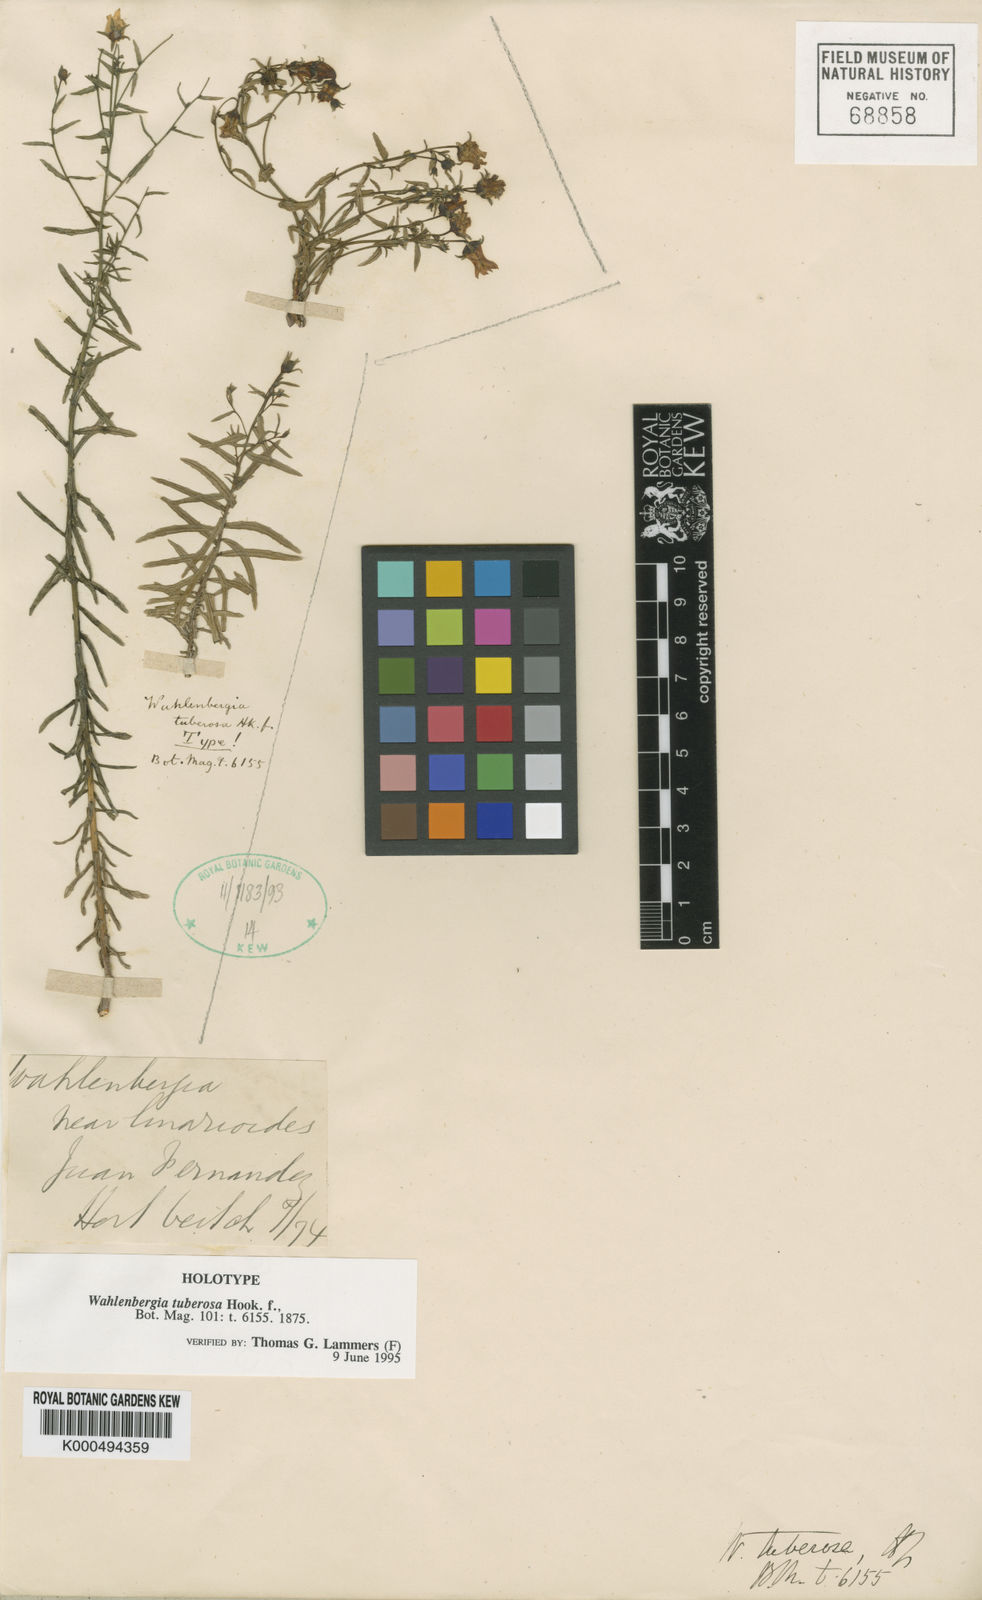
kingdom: Plantae
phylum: Tracheophyta
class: Magnoliopsida
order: Asterales
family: Campanulaceae
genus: Wahlenbergia
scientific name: Wahlenbergia masafuerae
